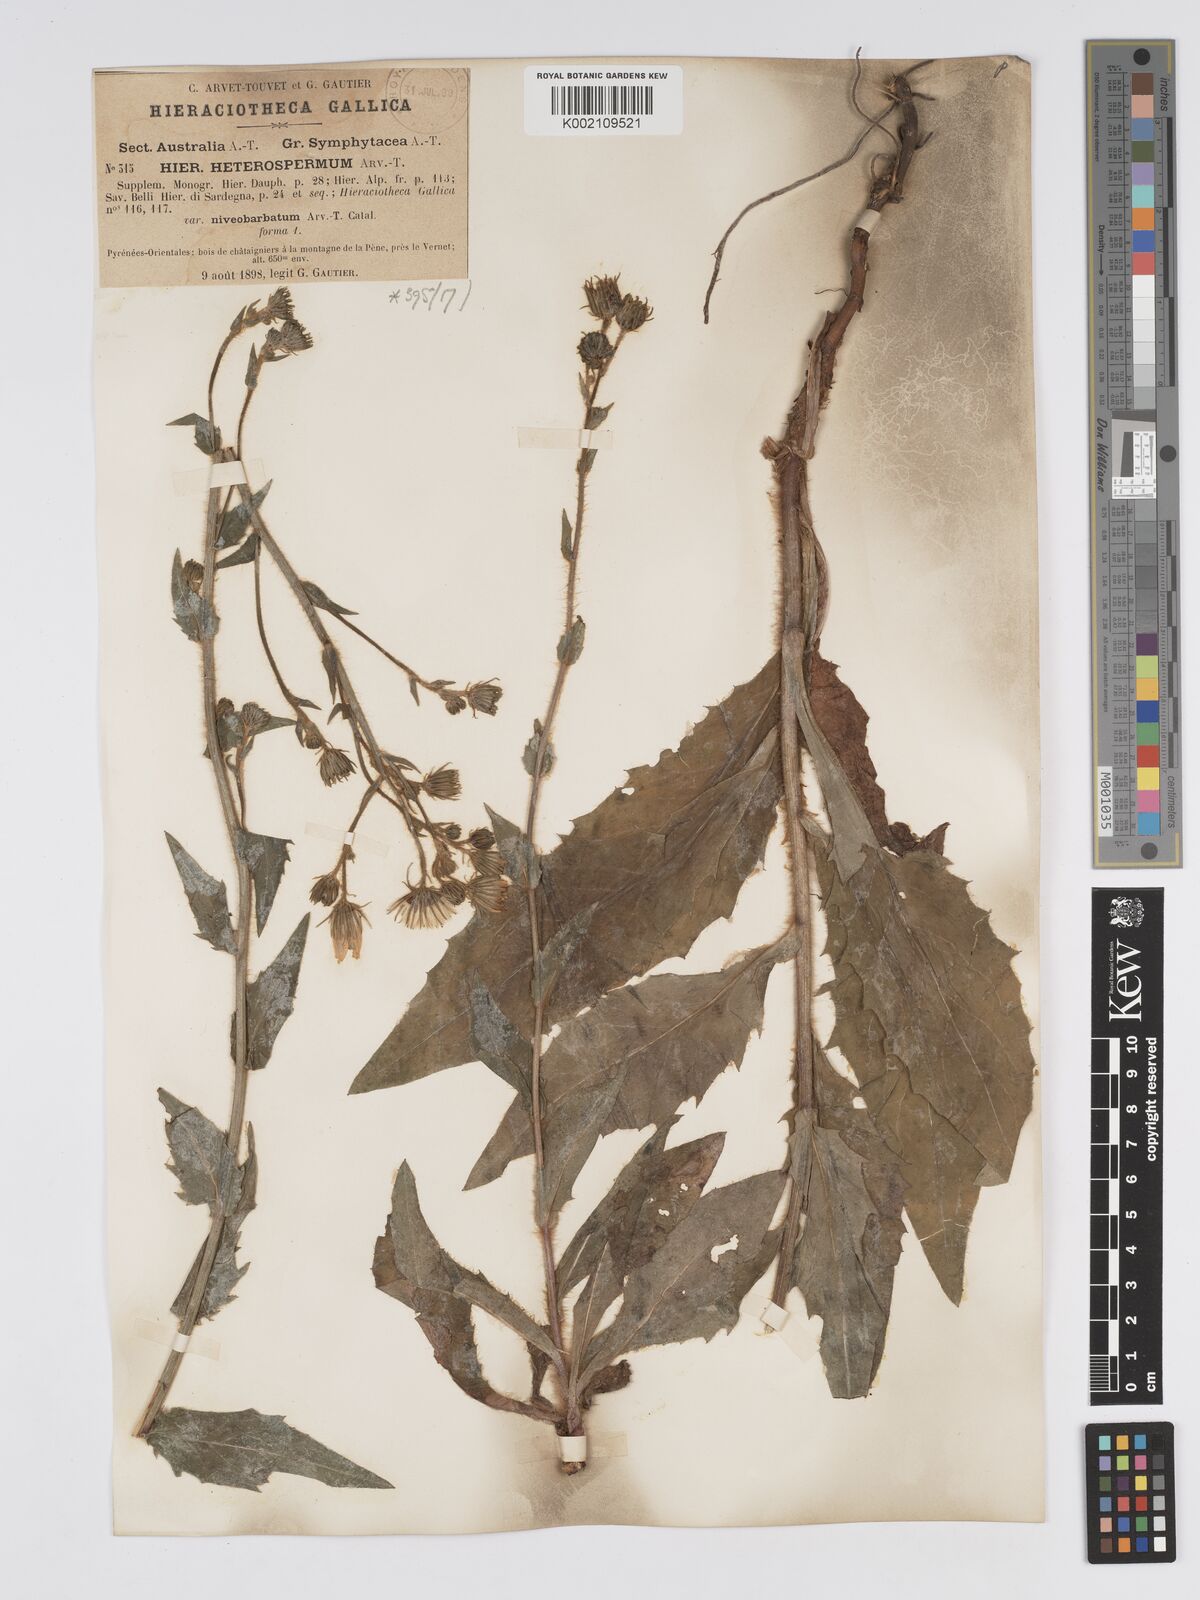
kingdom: Plantae
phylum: Tracheophyta
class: Magnoliopsida
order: Asterales
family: Asteraceae
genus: Hieracium
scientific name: Hieracium racemosum
